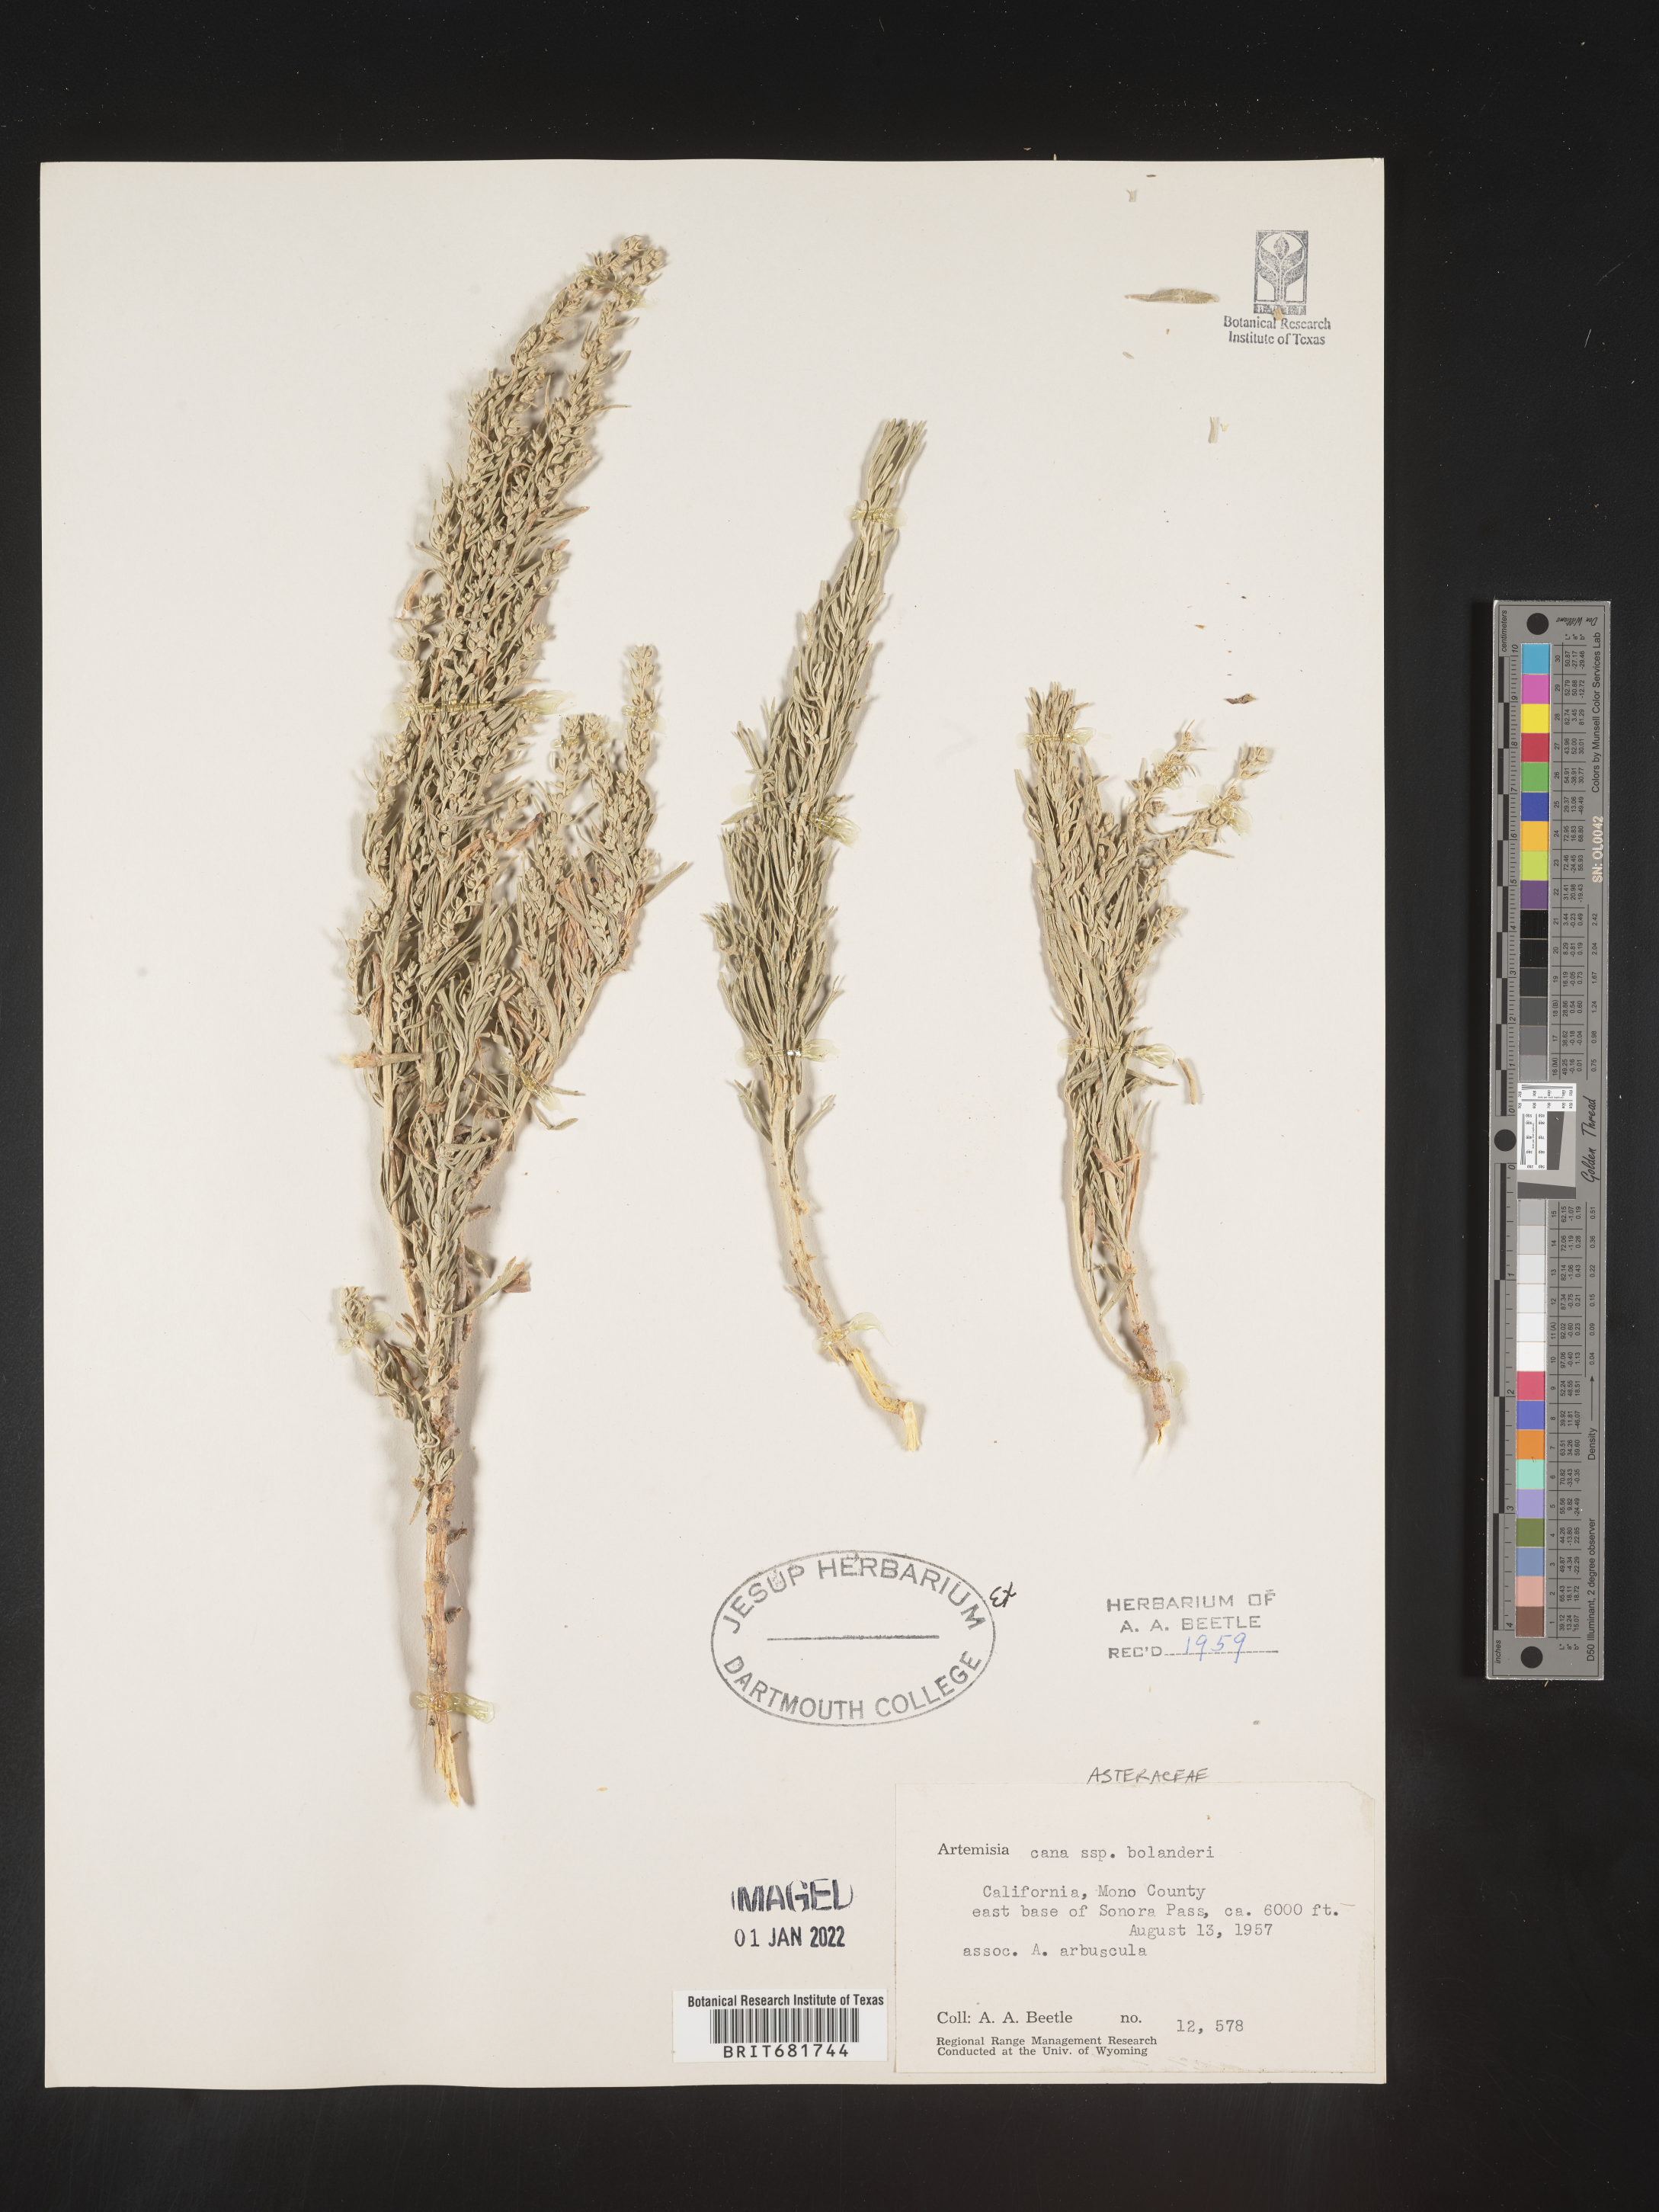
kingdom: Plantae
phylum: Tracheophyta
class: Magnoliopsida
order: Asterales
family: Asteraceae
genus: Artemisia
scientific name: Artemisia cana
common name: Silver sagebrush
